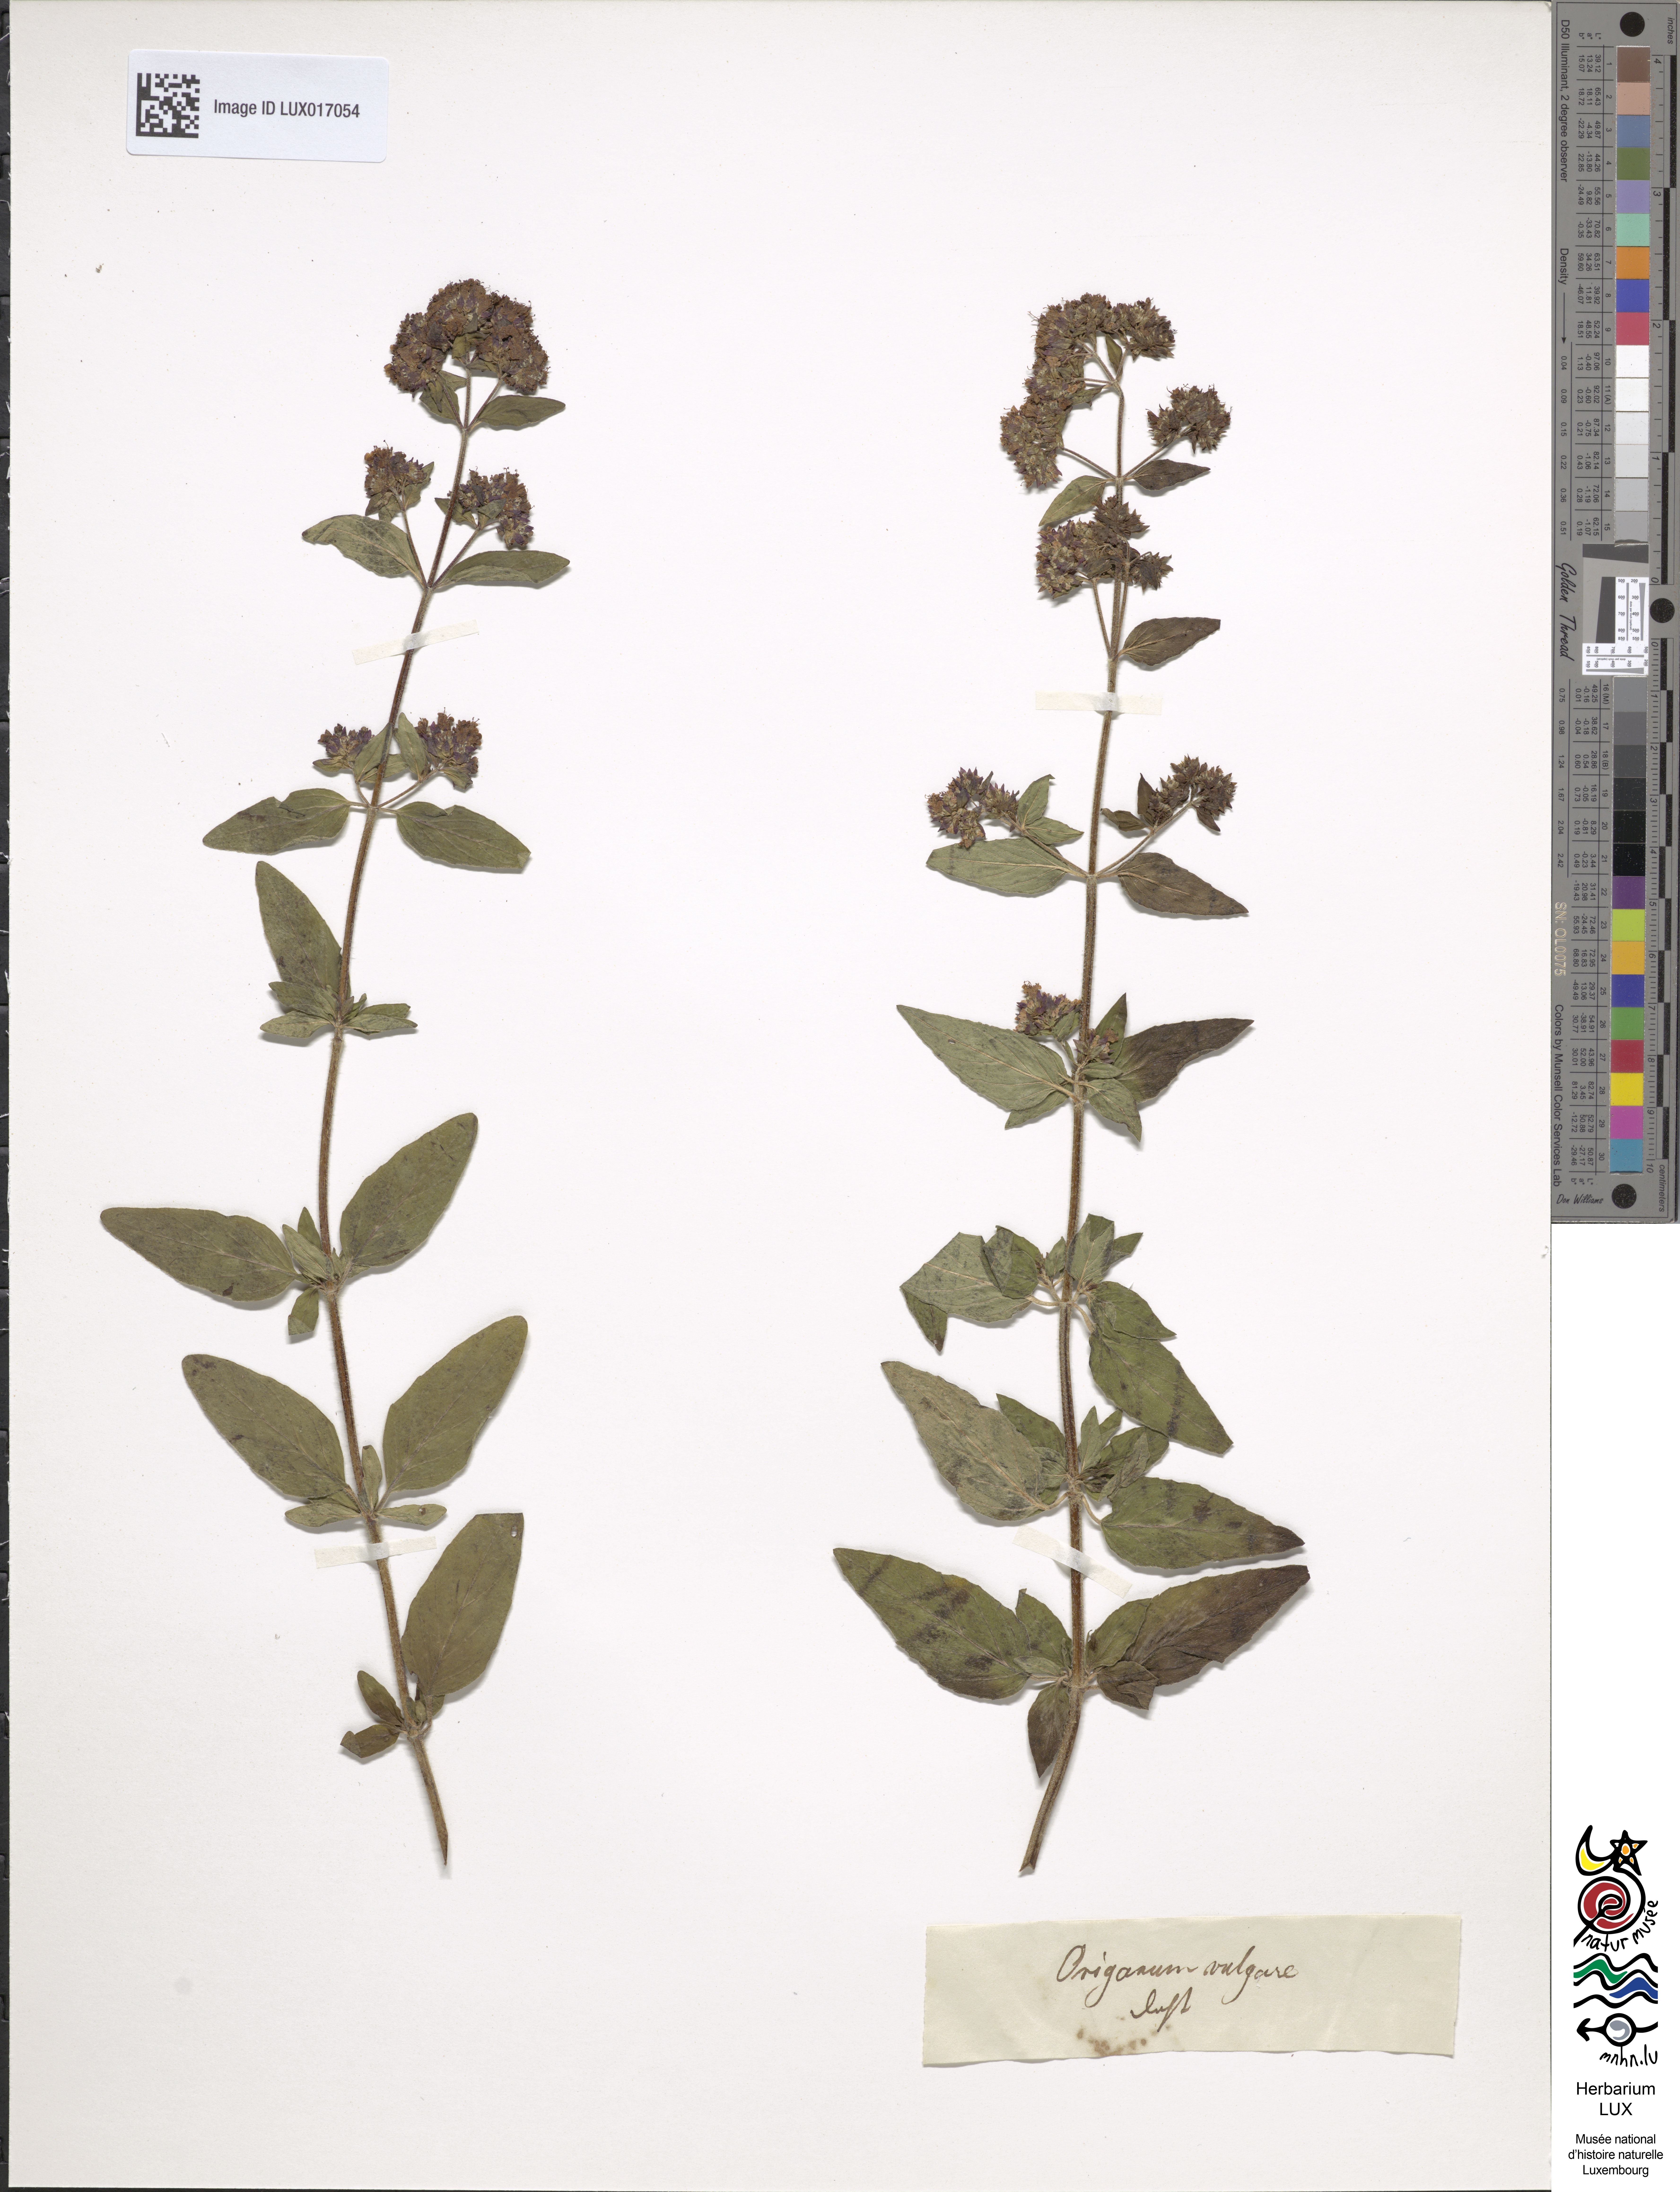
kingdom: Plantae
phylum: Tracheophyta
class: Magnoliopsida
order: Lamiales
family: Lamiaceae
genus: Origanum
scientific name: Origanum vulgare
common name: Wild marjoram
